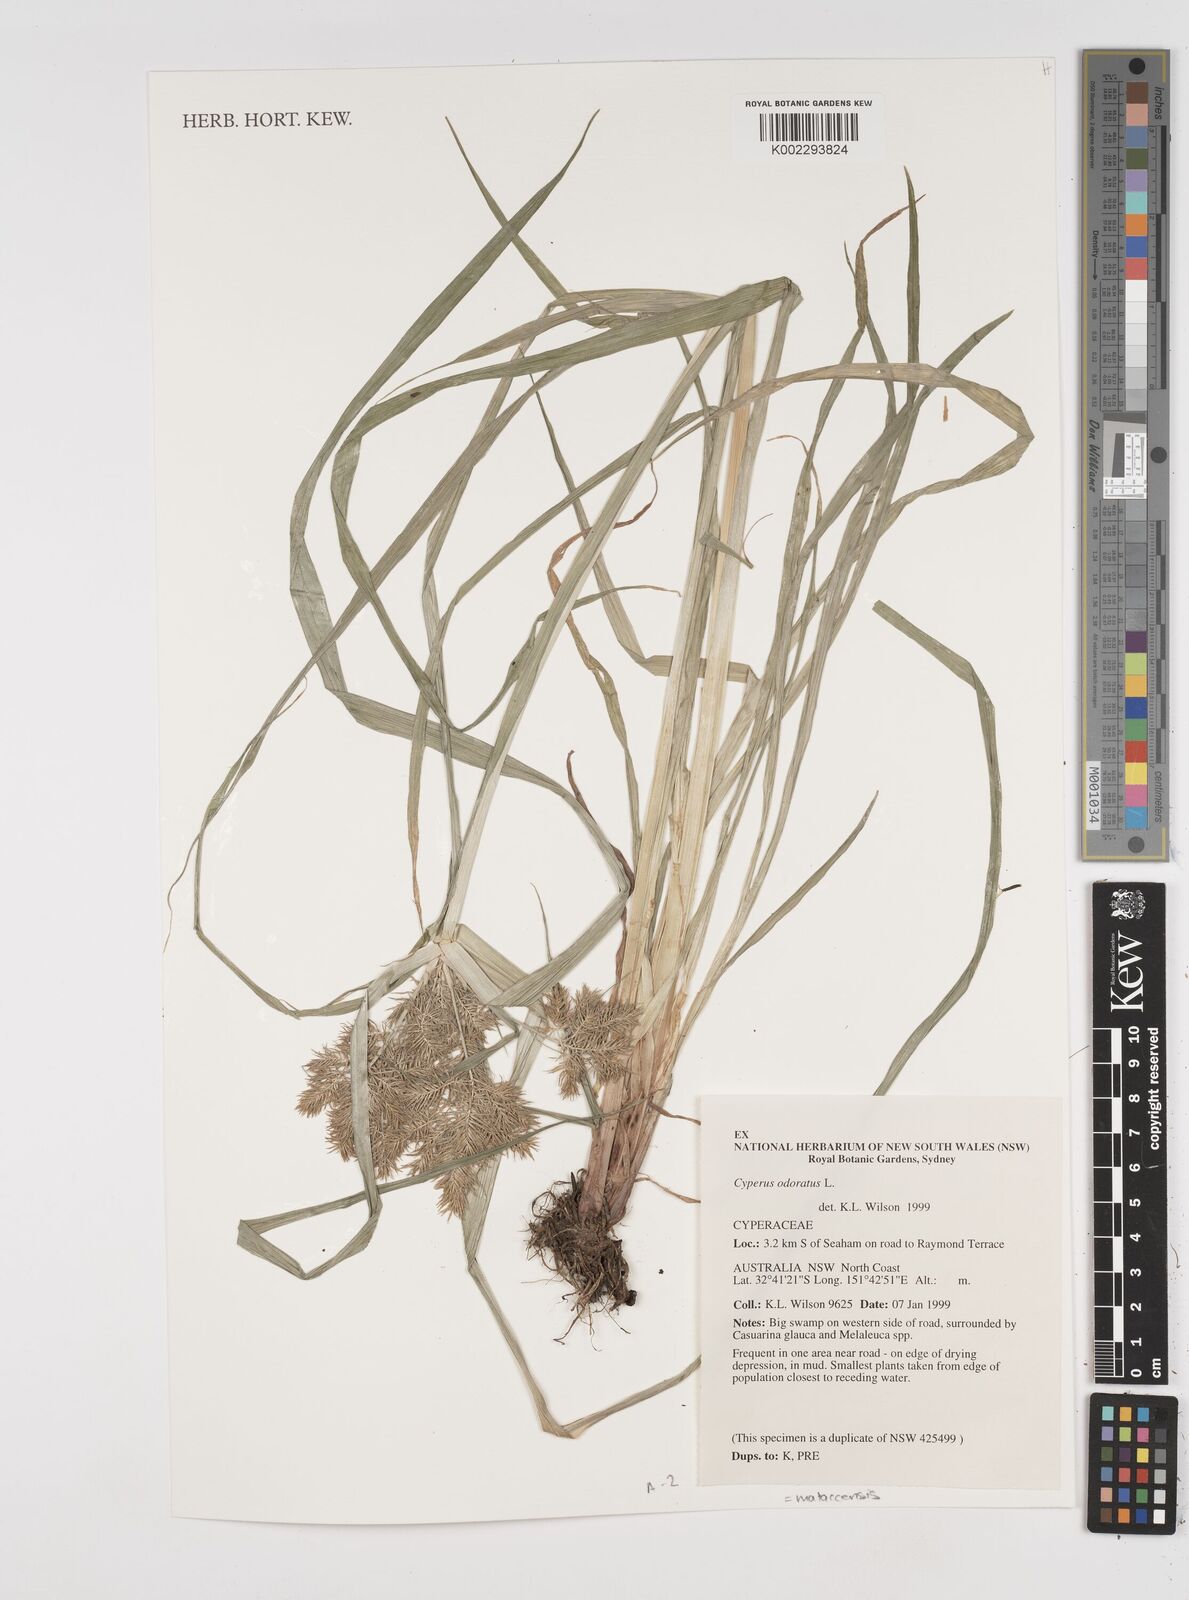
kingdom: Plantae
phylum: Tracheophyta
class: Liliopsida
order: Poales
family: Cyperaceae
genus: Cyperus
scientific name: Cyperus odoratus
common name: Fragrant flatsedge
